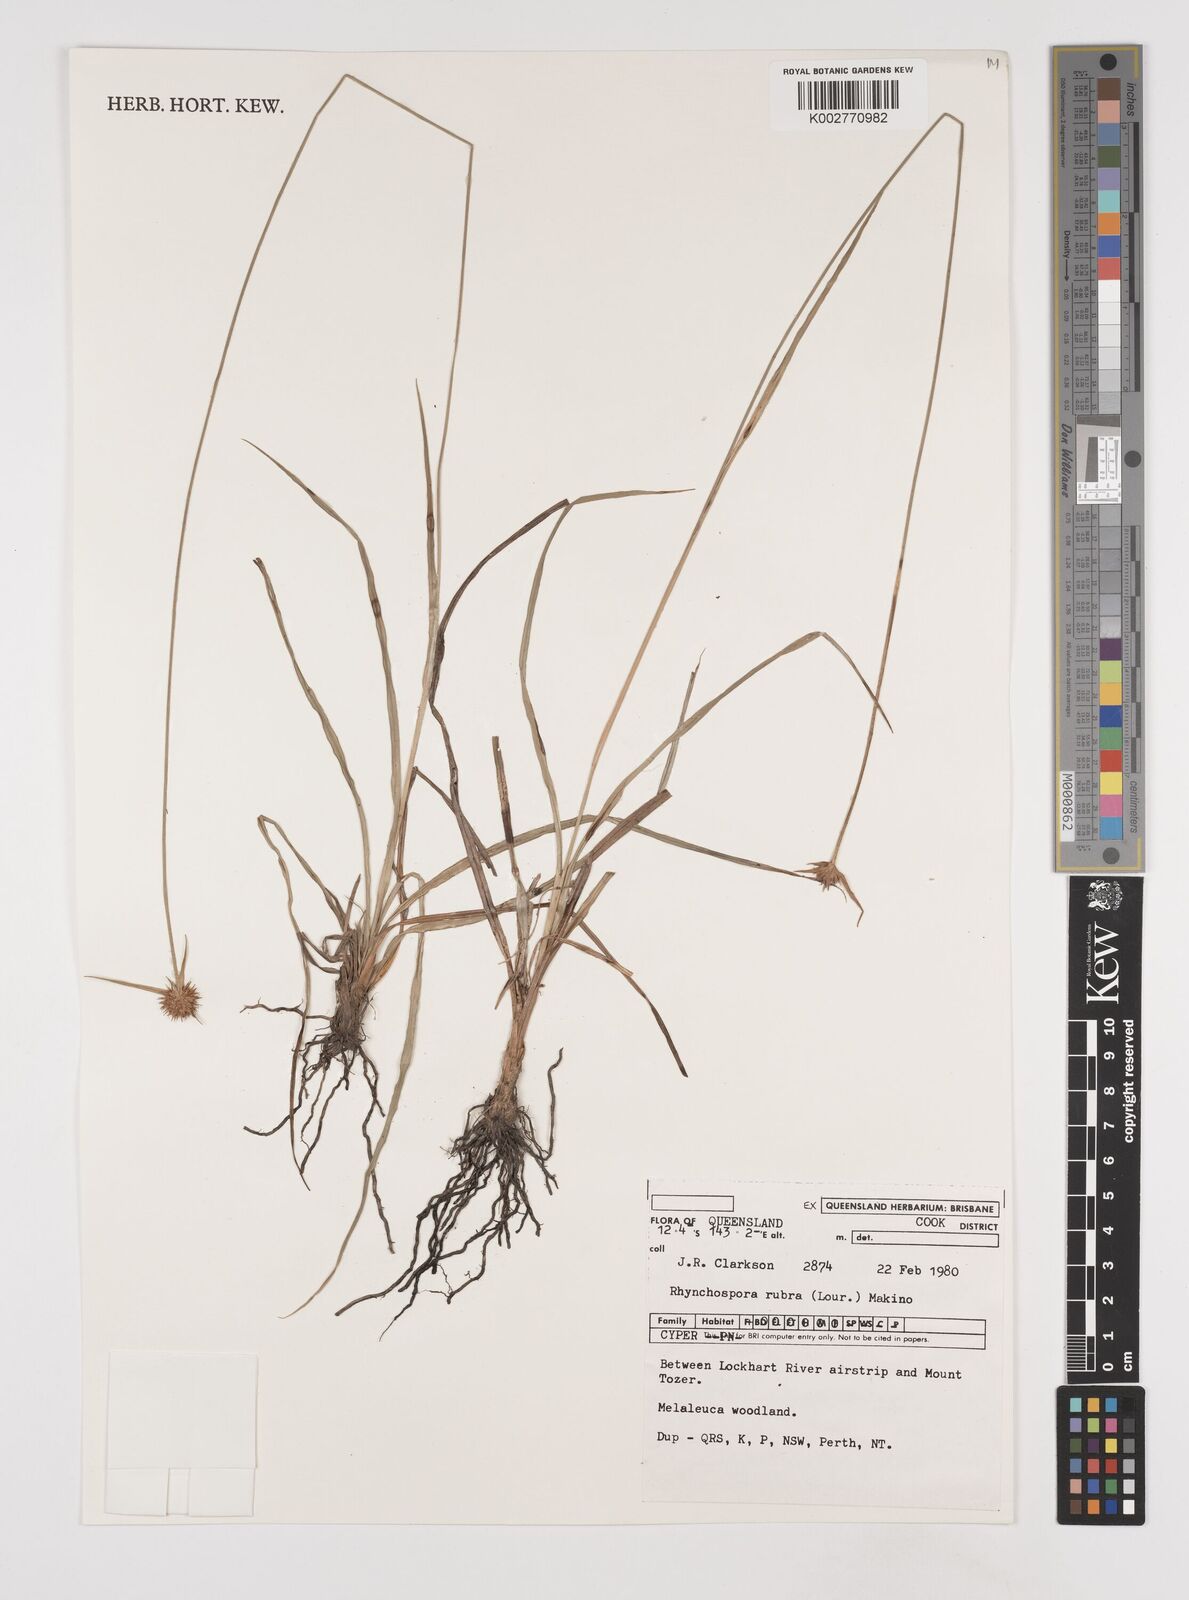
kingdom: Plantae
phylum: Tracheophyta
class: Liliopsida
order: Poales
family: Cyperaceae
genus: Rhynchospora
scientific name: Rhynchospora rubra
